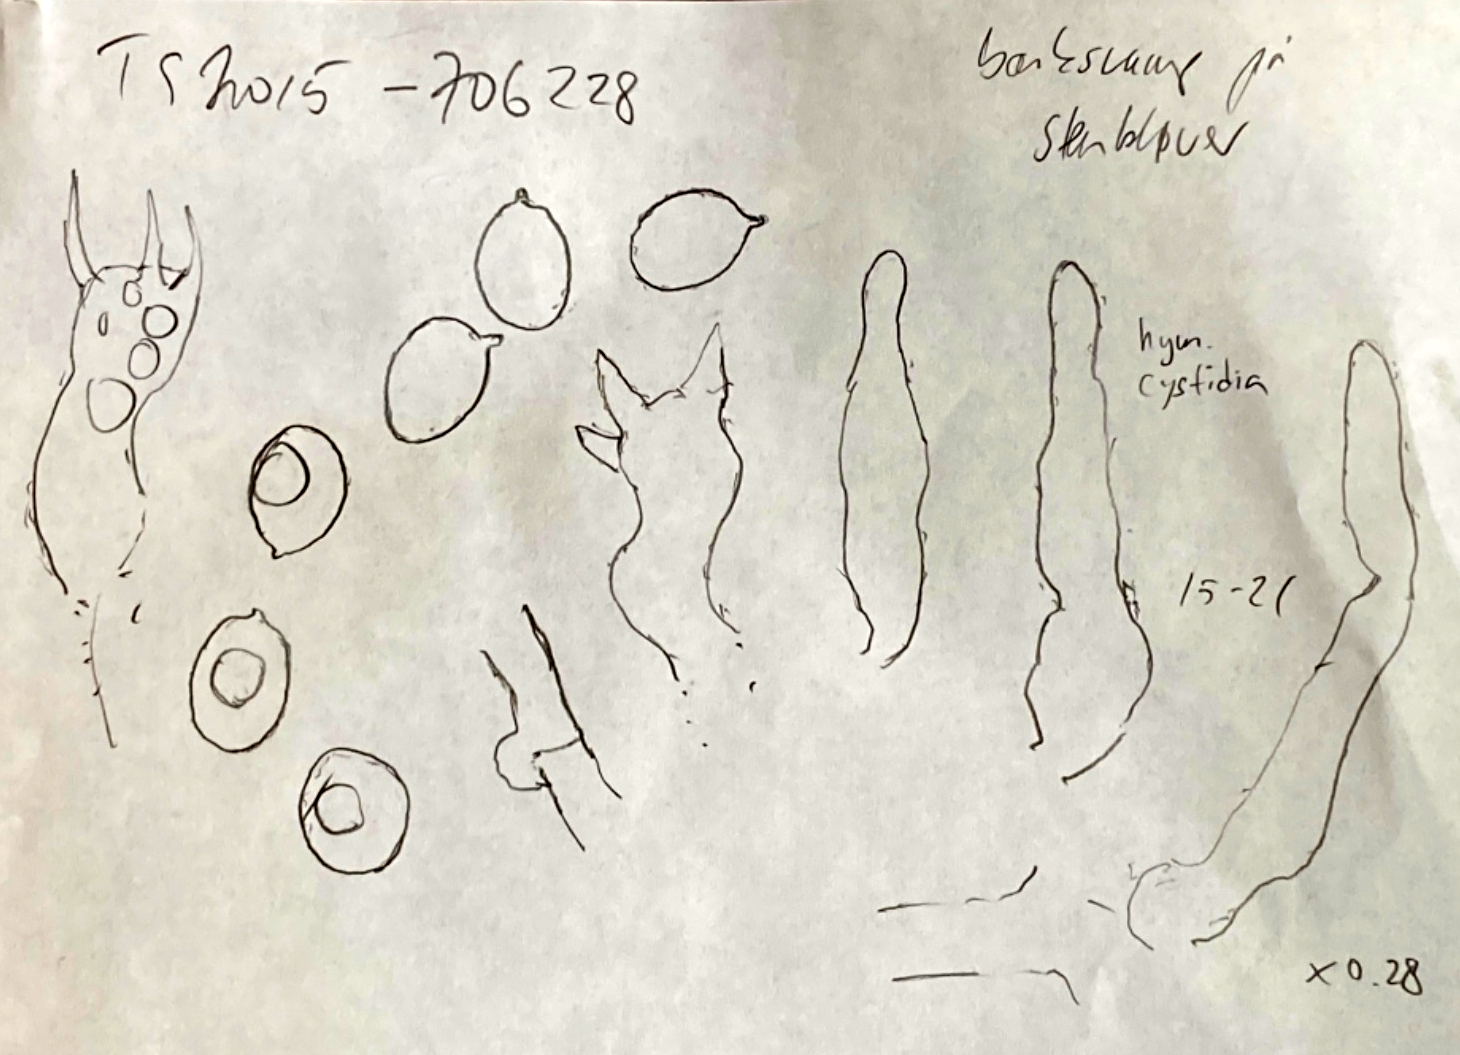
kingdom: Fungi
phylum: Basidiomycota
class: Agaricomycetes
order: Corticiales
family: Corticiaceae
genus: Lyomyces
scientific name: Lyomyces sambuci
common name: almindelig hyldehinde
